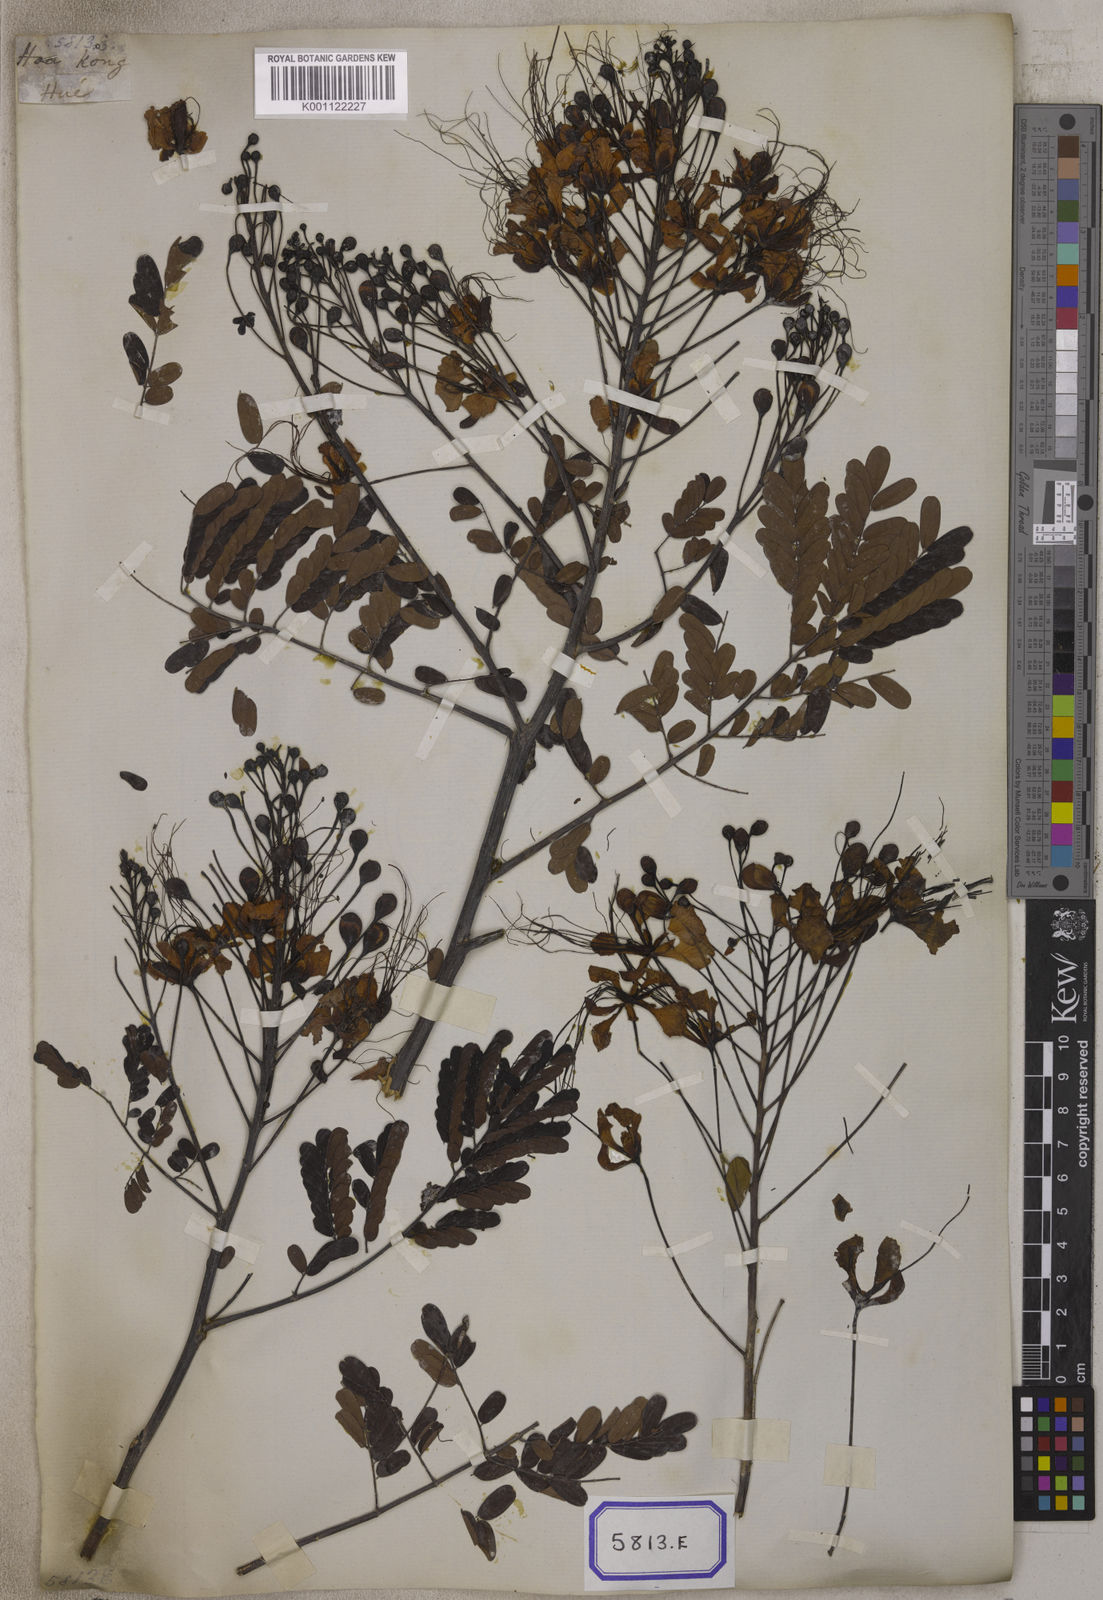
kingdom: Plantae
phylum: Tracheophyta
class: Magnoliopsida
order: Fabales
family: Fabaceae
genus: Caesalpinia
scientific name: Caesalpinia pulcherrima
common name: Pride-of-barbados
